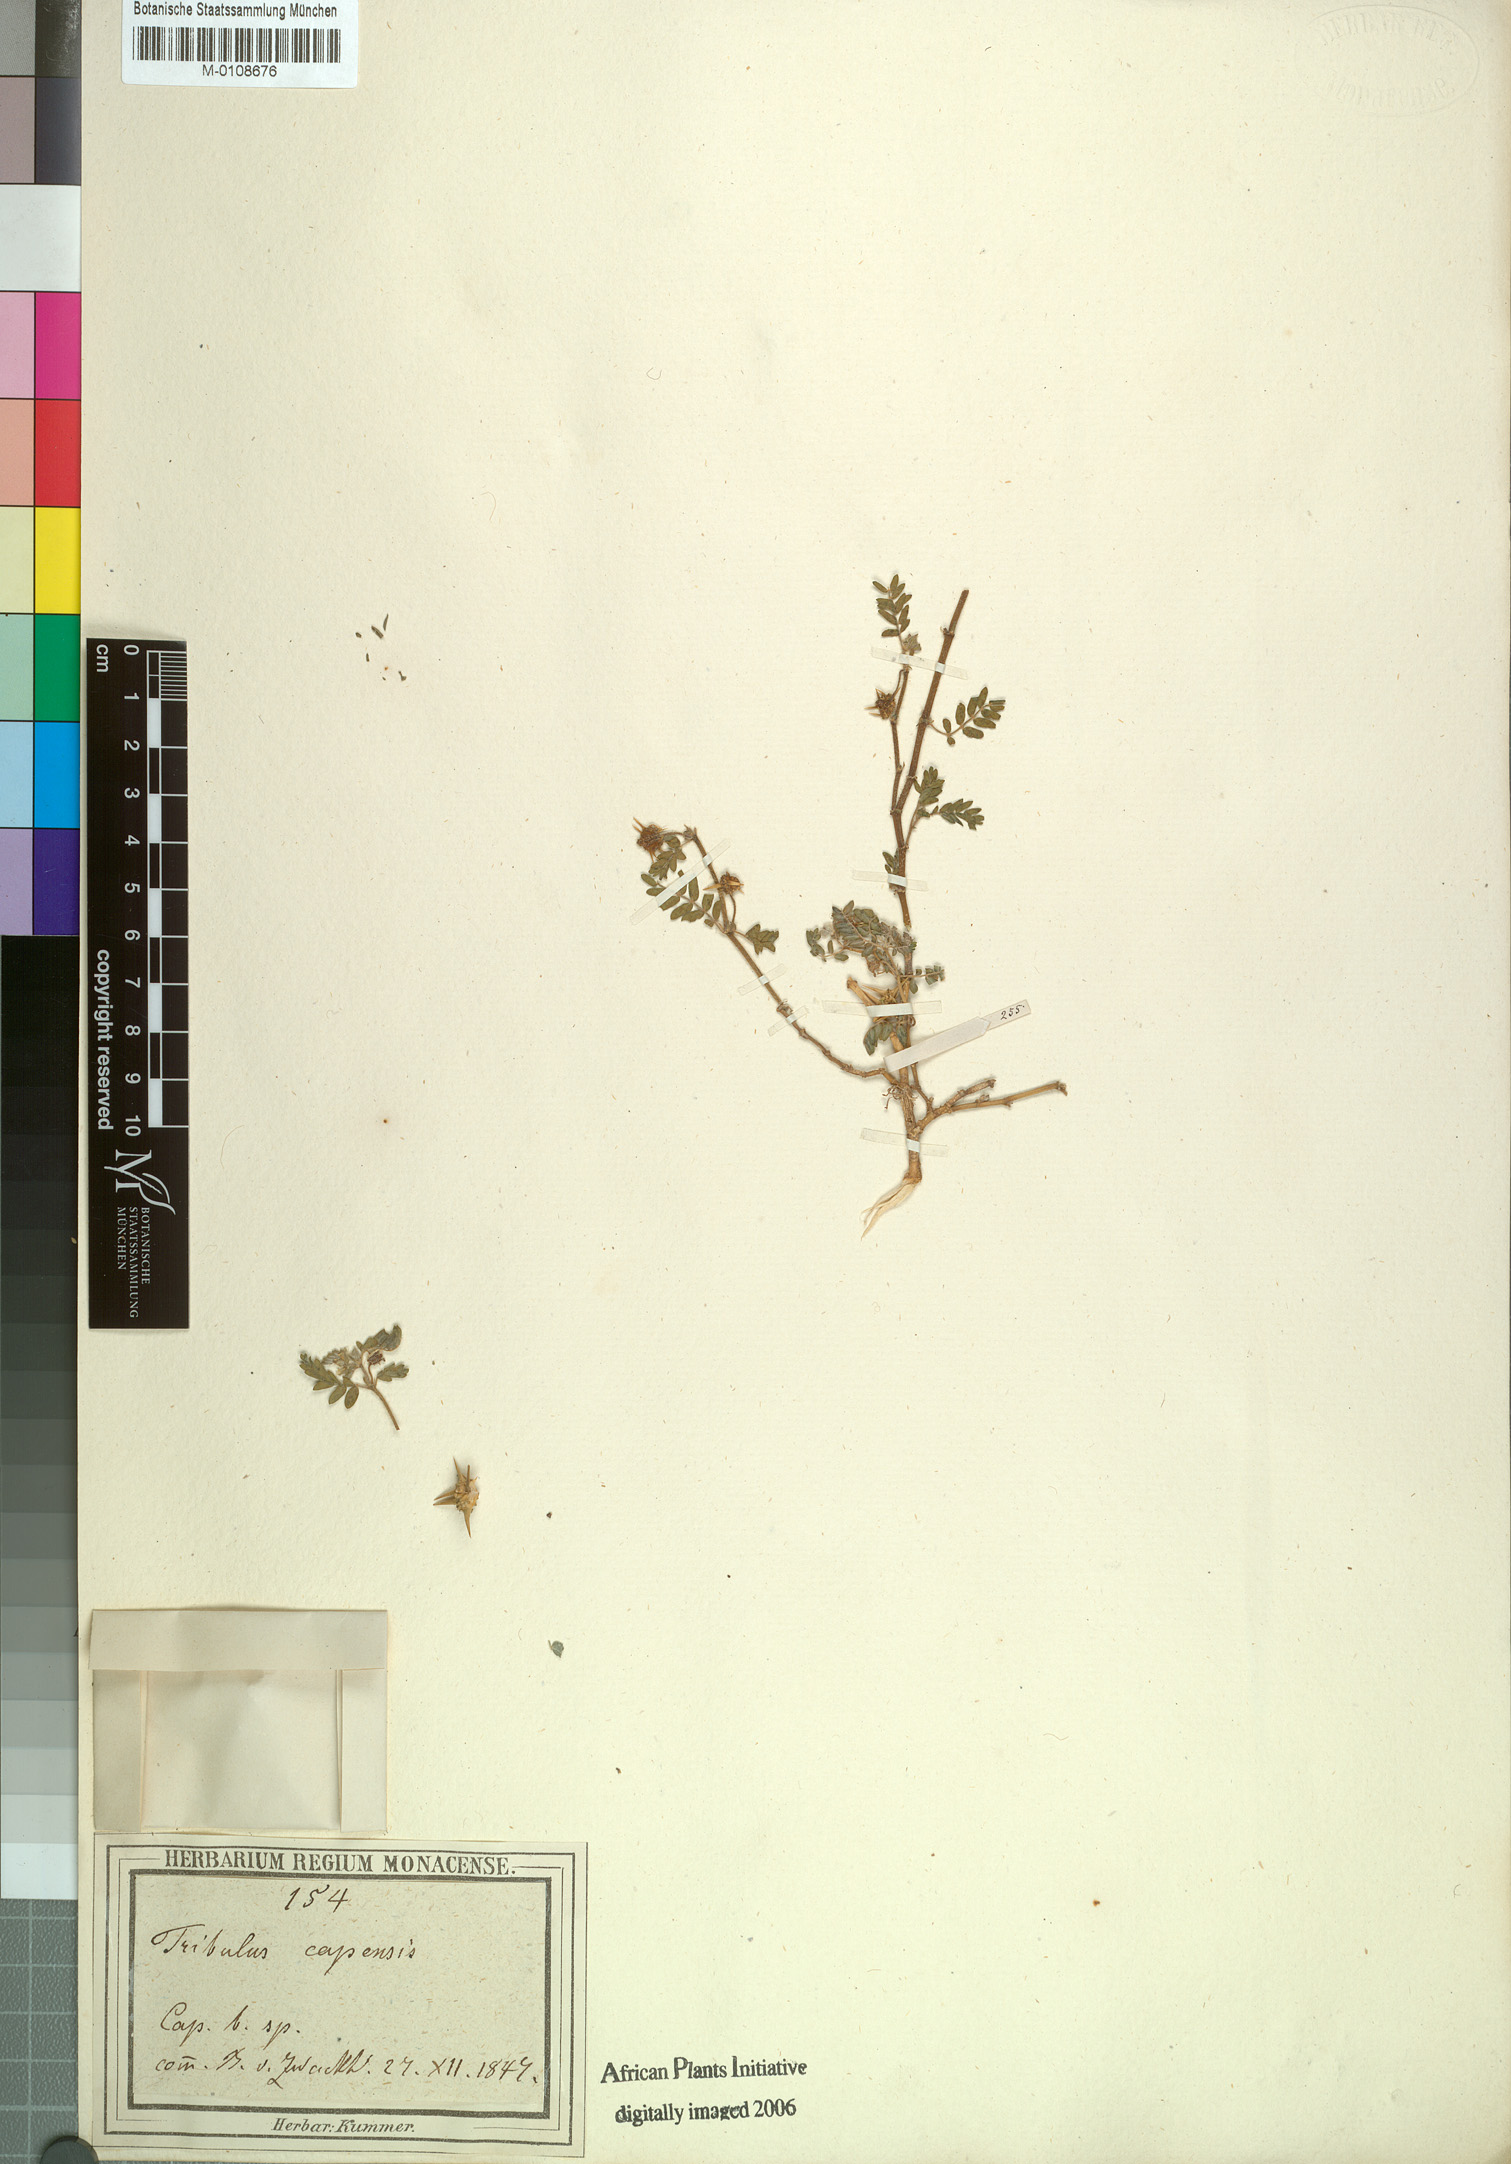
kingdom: Plantae
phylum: Tracheophyta
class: Magnoliopsida
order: Zygophyllales
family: Zygophyllaceae
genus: Tribulus
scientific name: Tribulus terrestris
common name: Puncturevine
